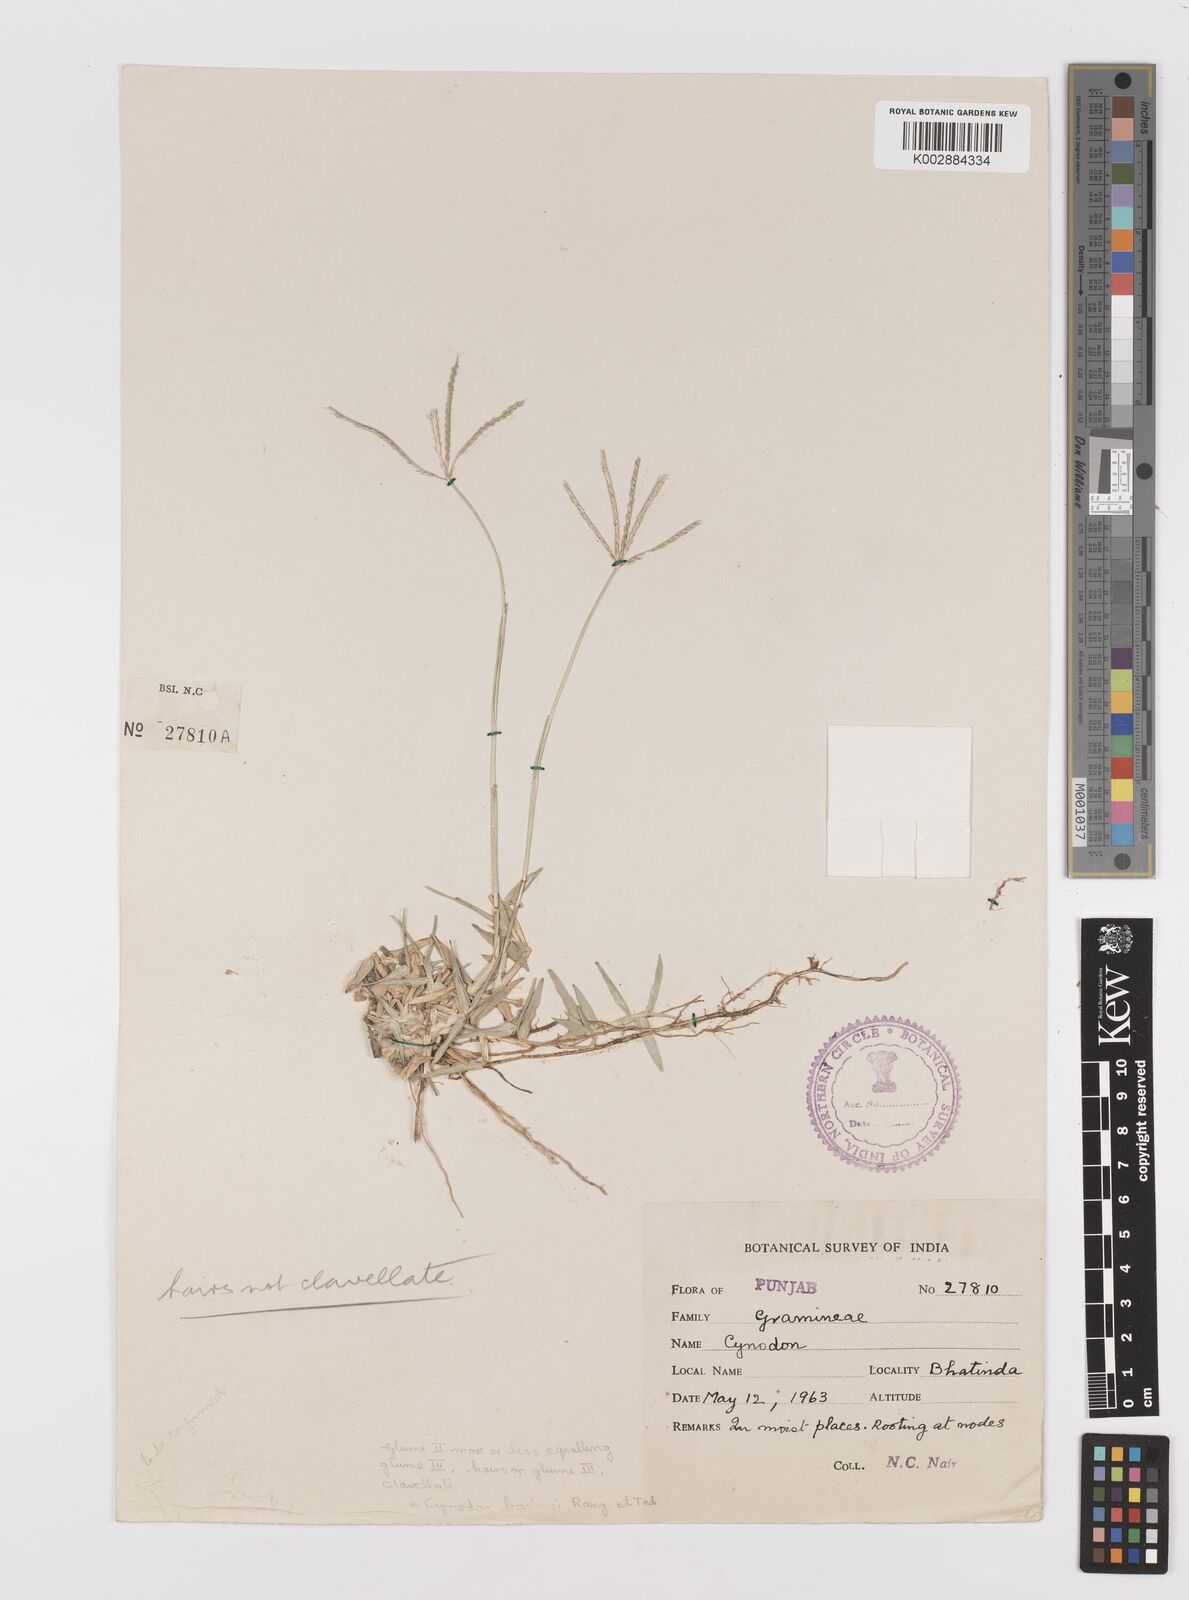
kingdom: Plantae
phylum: Tracheophyta
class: Liliopsida
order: Poales
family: Poaceae
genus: Cynodon
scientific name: Cynodon dactylon
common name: Bermuda grass
